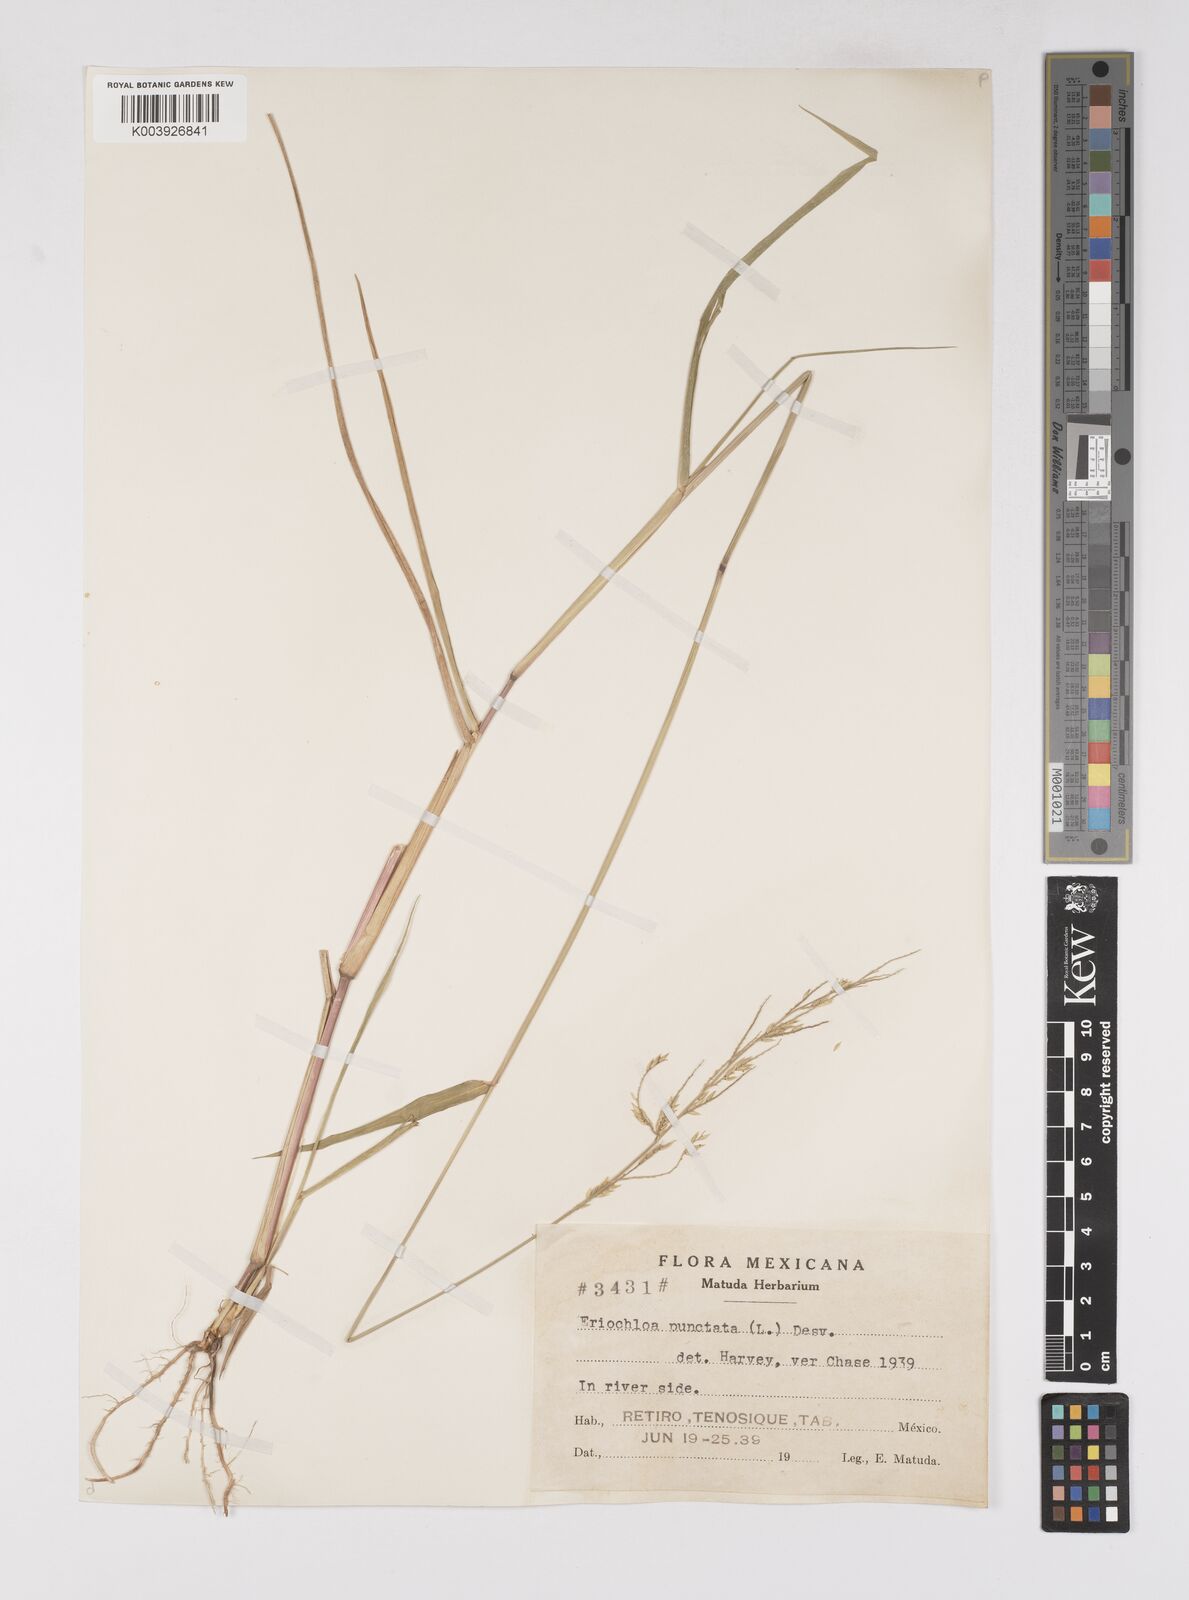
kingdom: Plantae
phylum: Tracheophyta
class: Liliopsida
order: Poales
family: Poaceae
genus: Eriochloa
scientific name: Eriochloa punctata
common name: Louisiana cupgrass
